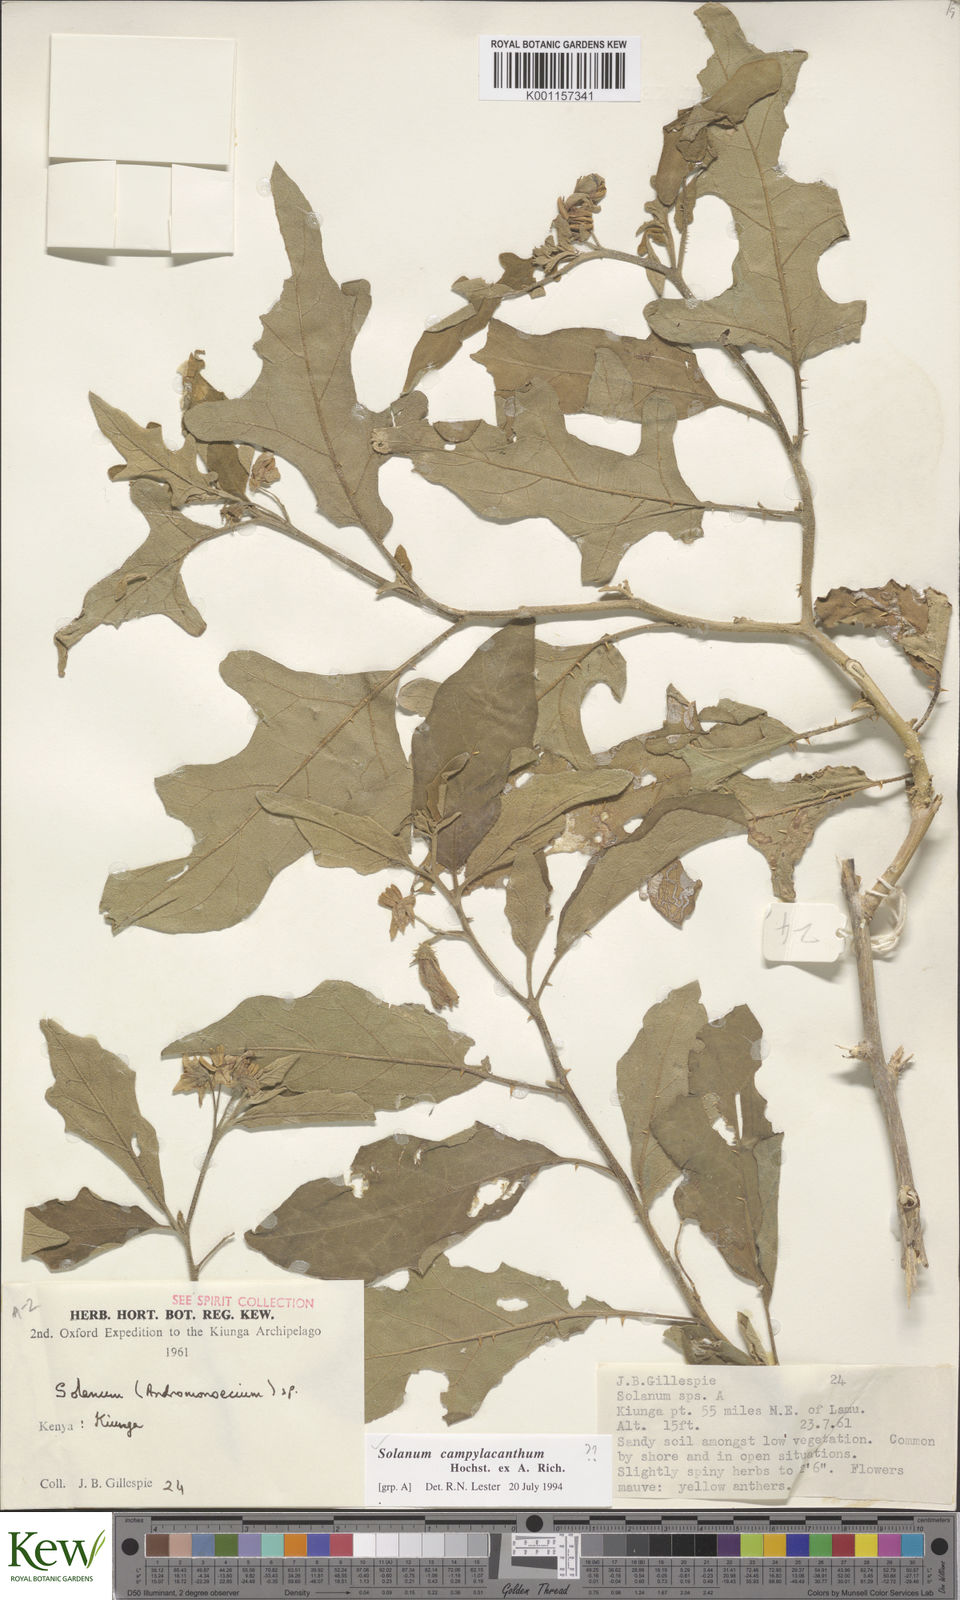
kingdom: Plantae
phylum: Tracheophyta
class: Magnoliopsida
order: Solanales
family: Solanaceae
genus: Solanum
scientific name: Solanum campylacanthum
